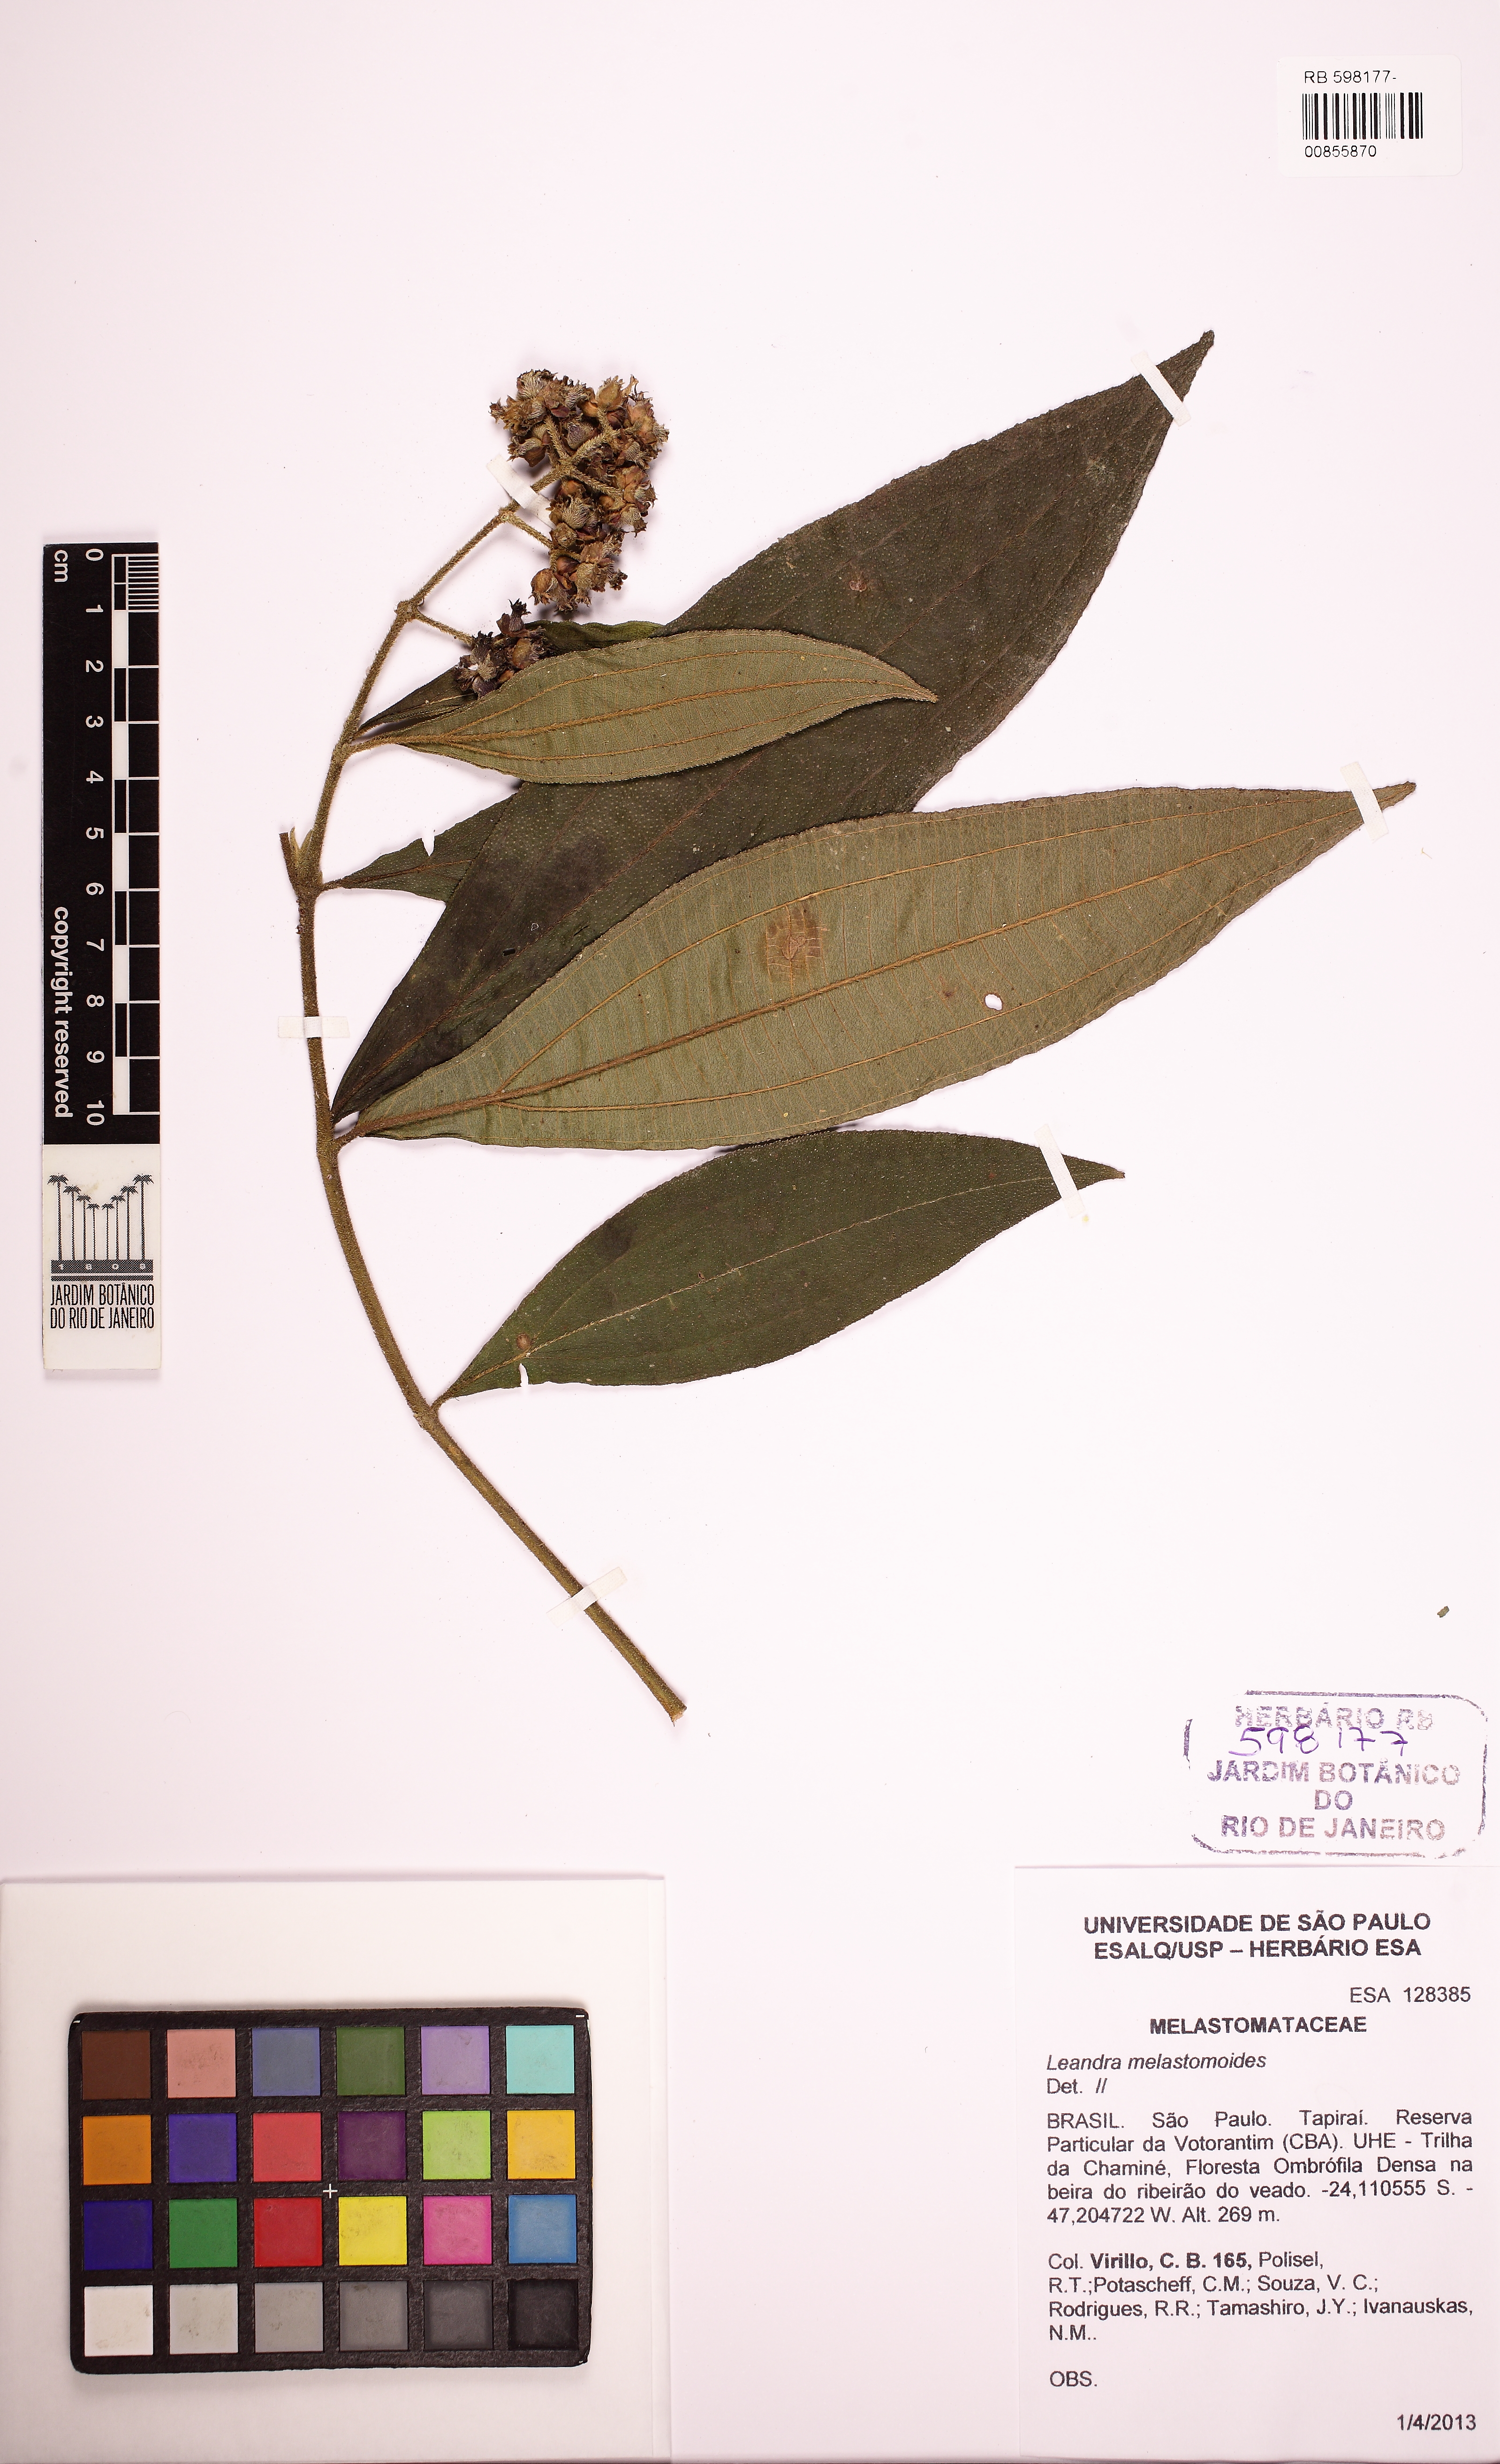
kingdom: Plantae
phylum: Tracheophyta
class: Magnoliopsida
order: Myrtales
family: Melastomataceae
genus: Miconia
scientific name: Miconia melastomoides
